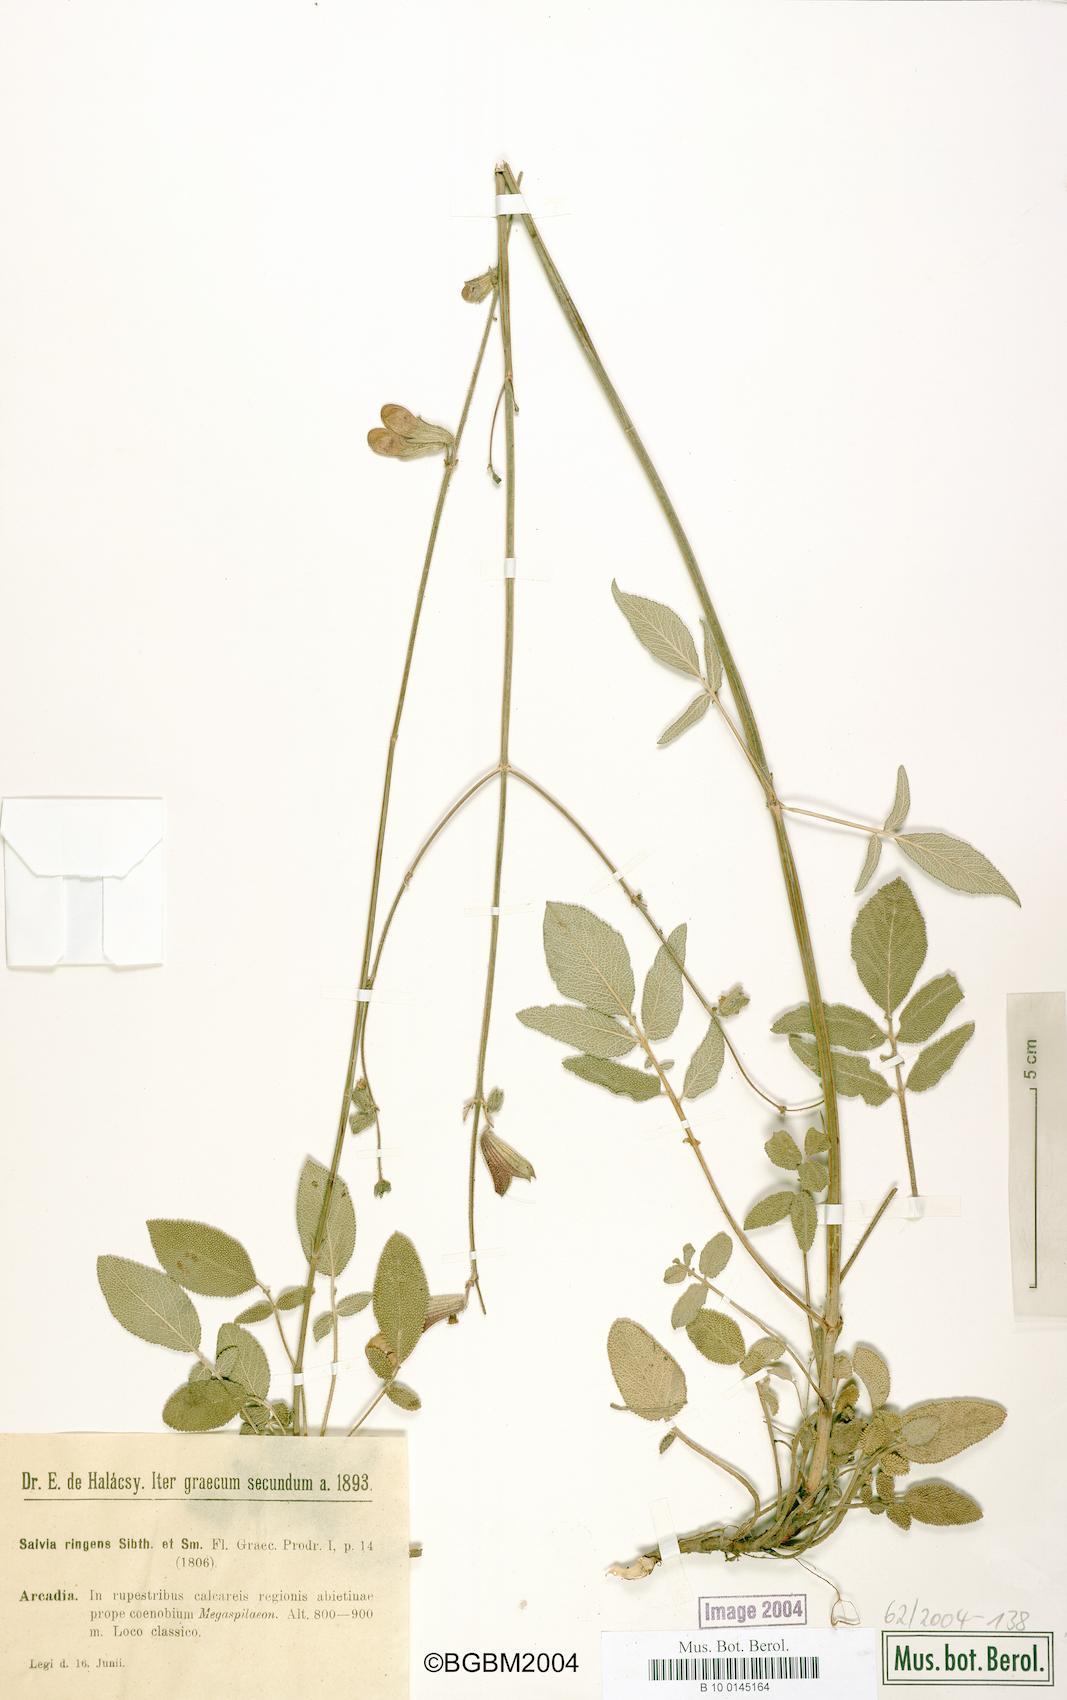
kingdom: Plantae
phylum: Tracheophyta
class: Magnoliopsida
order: Lamiales
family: Lamiaceae
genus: Salvia
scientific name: Salvia ringens
